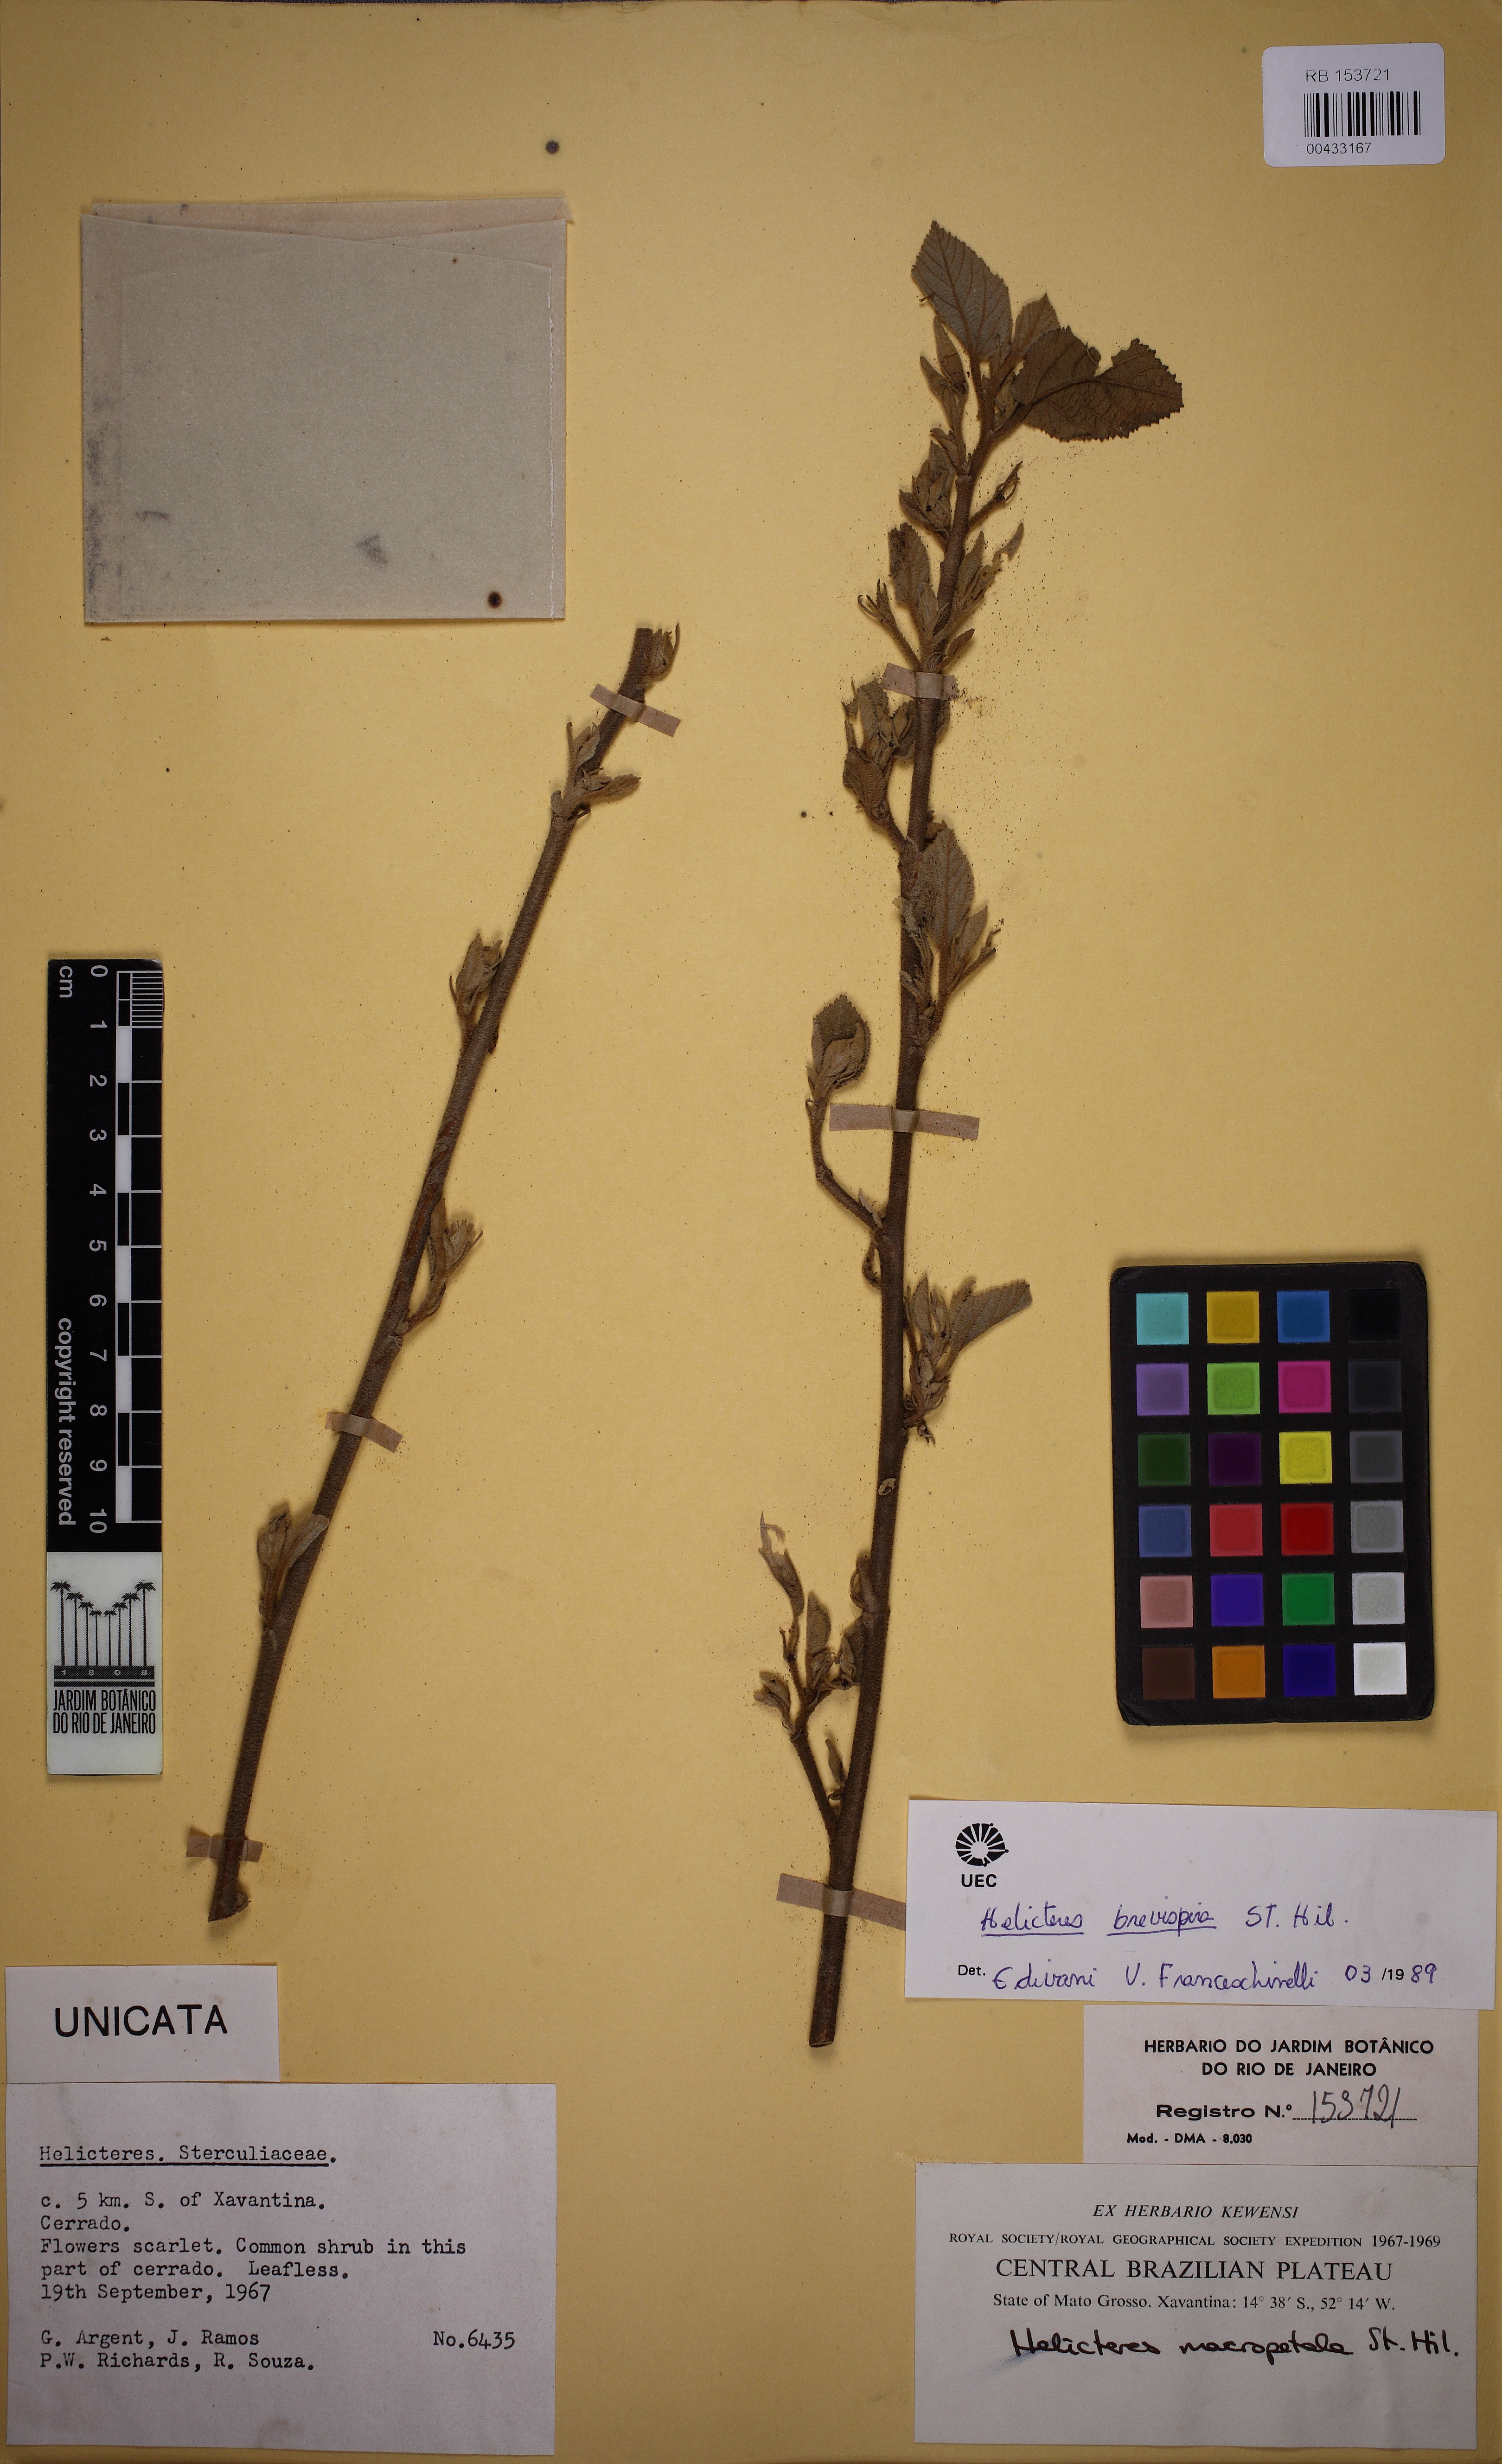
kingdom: Plantae
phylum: Tracheophyta
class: Magnoliopsida
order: Malvales
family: Malvaceae
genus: Helicteres
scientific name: Helicteres brevispira
